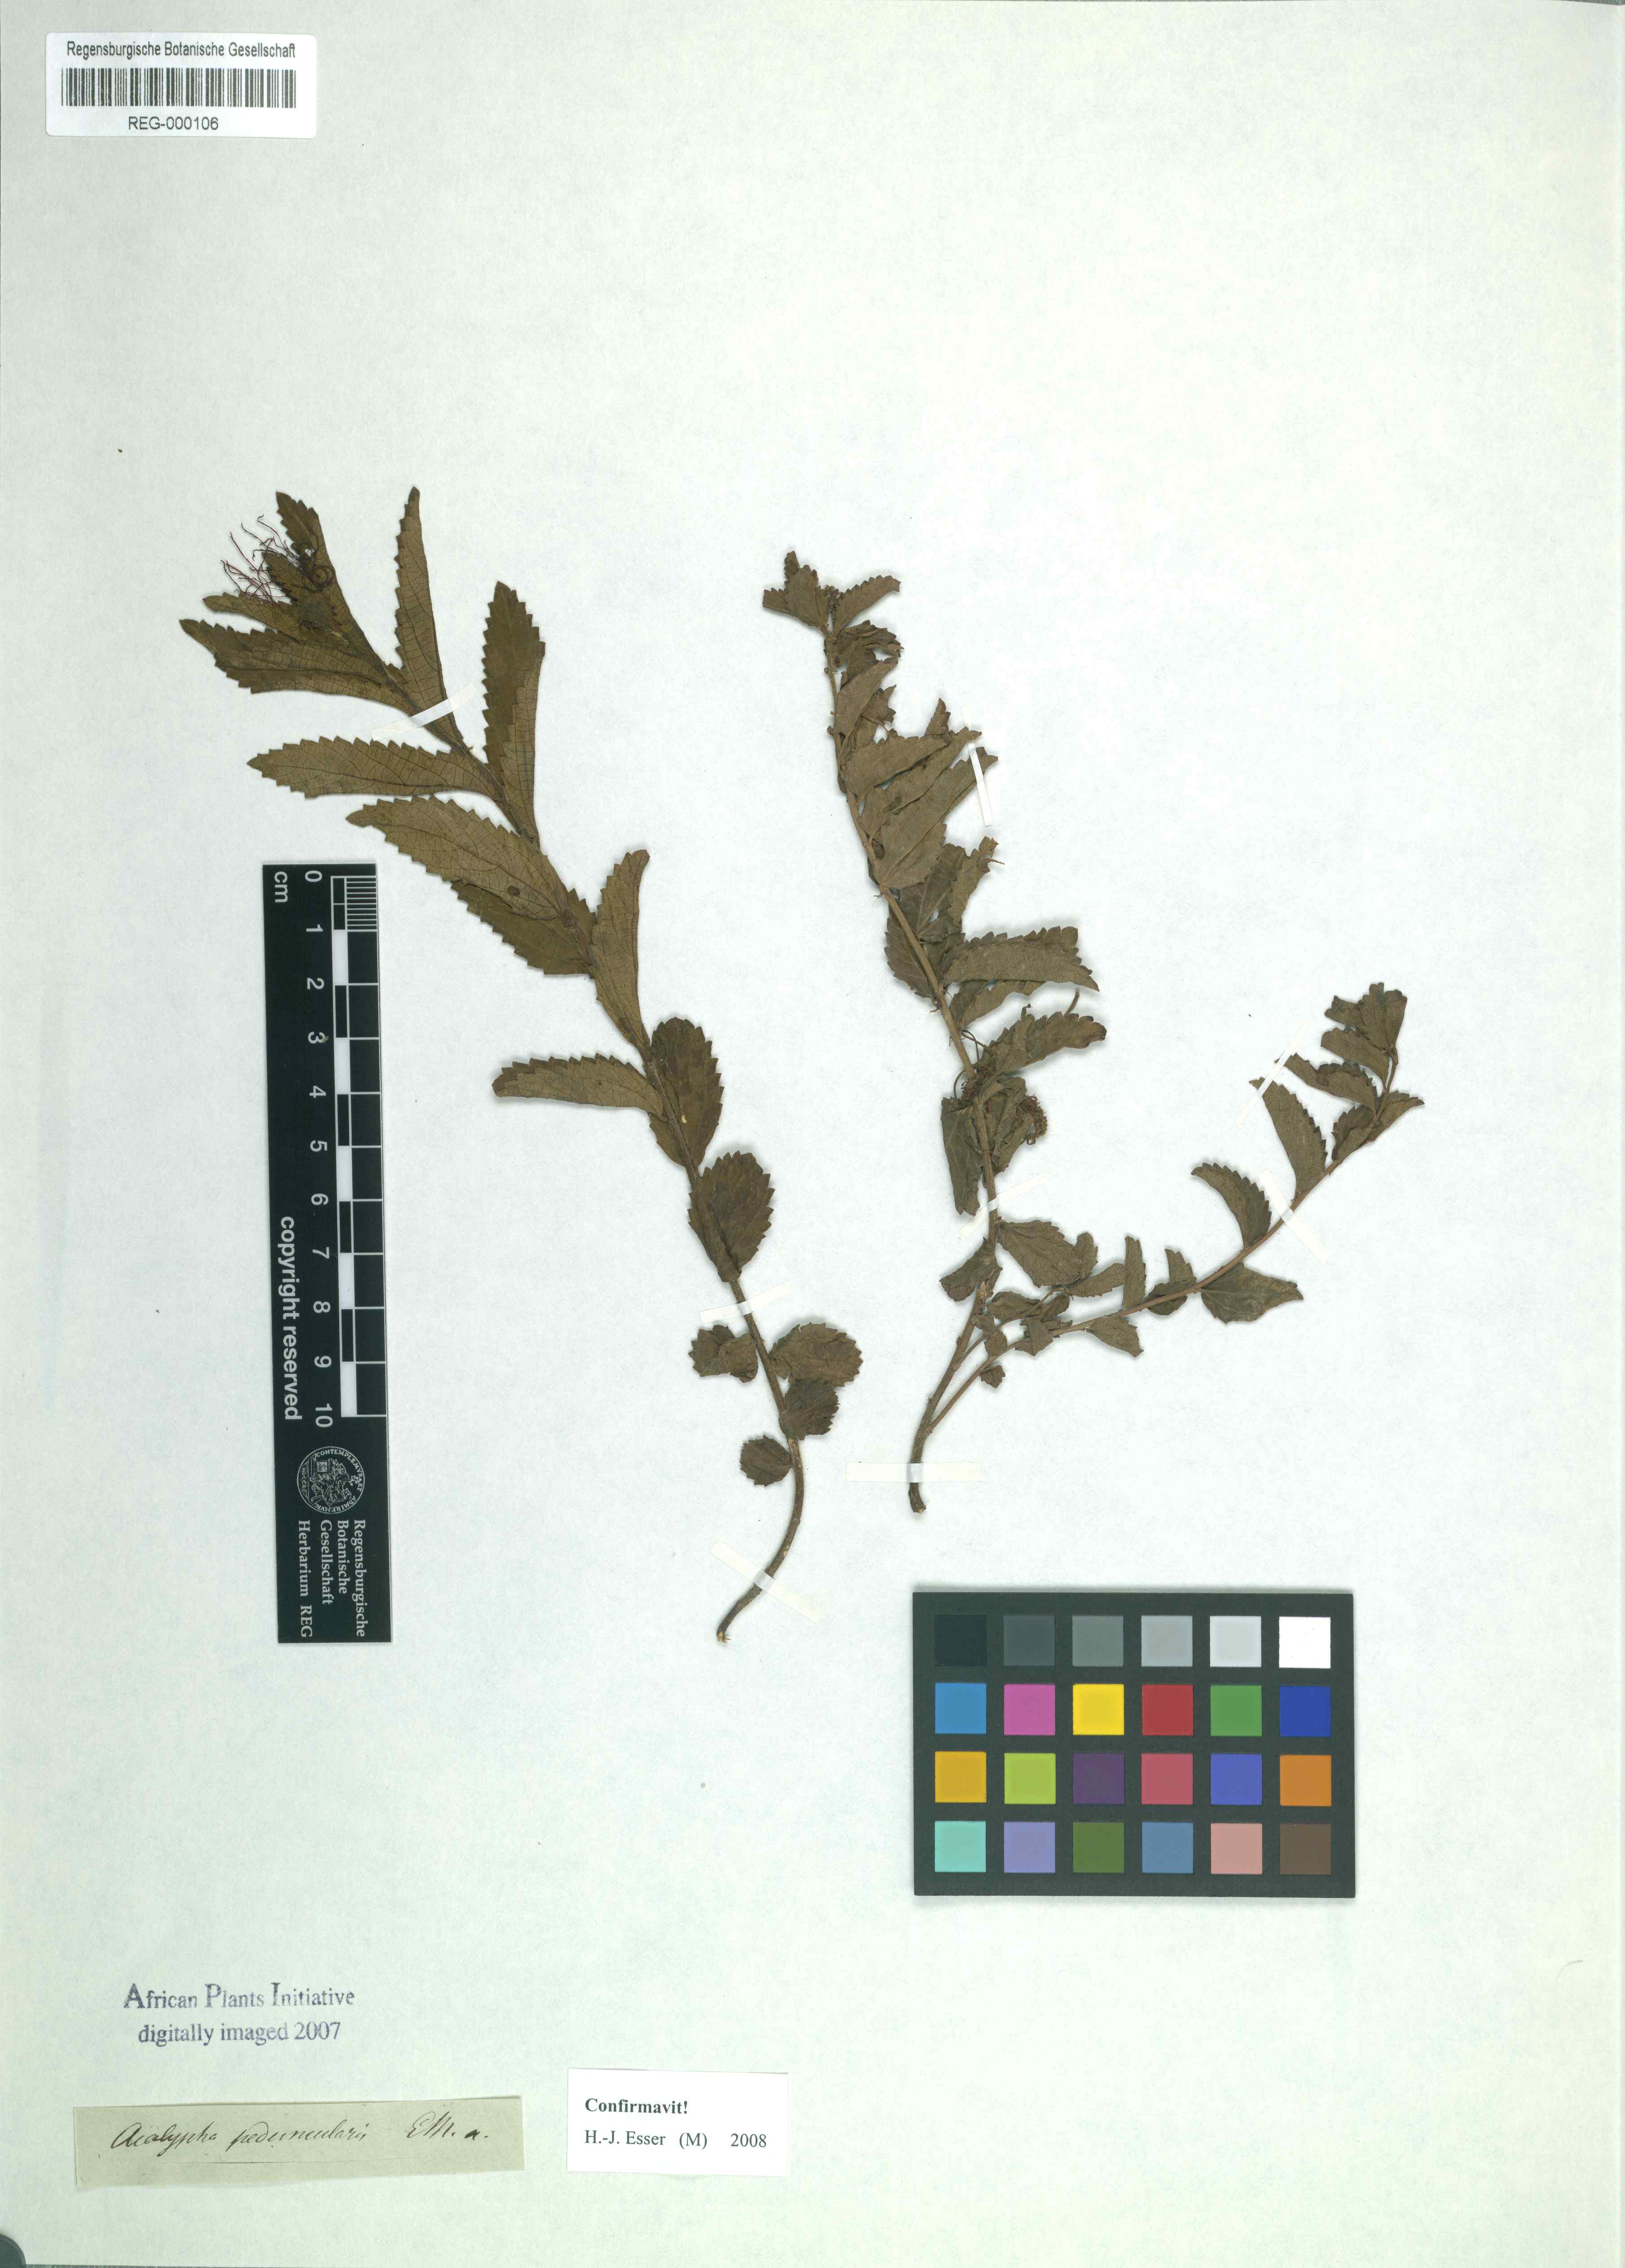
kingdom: Plantae
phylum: Tracheophyta
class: Magnoliopsida
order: Malpighiales
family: Euphorbiaceae
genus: Acalypha
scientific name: Acalypha peduncularis
